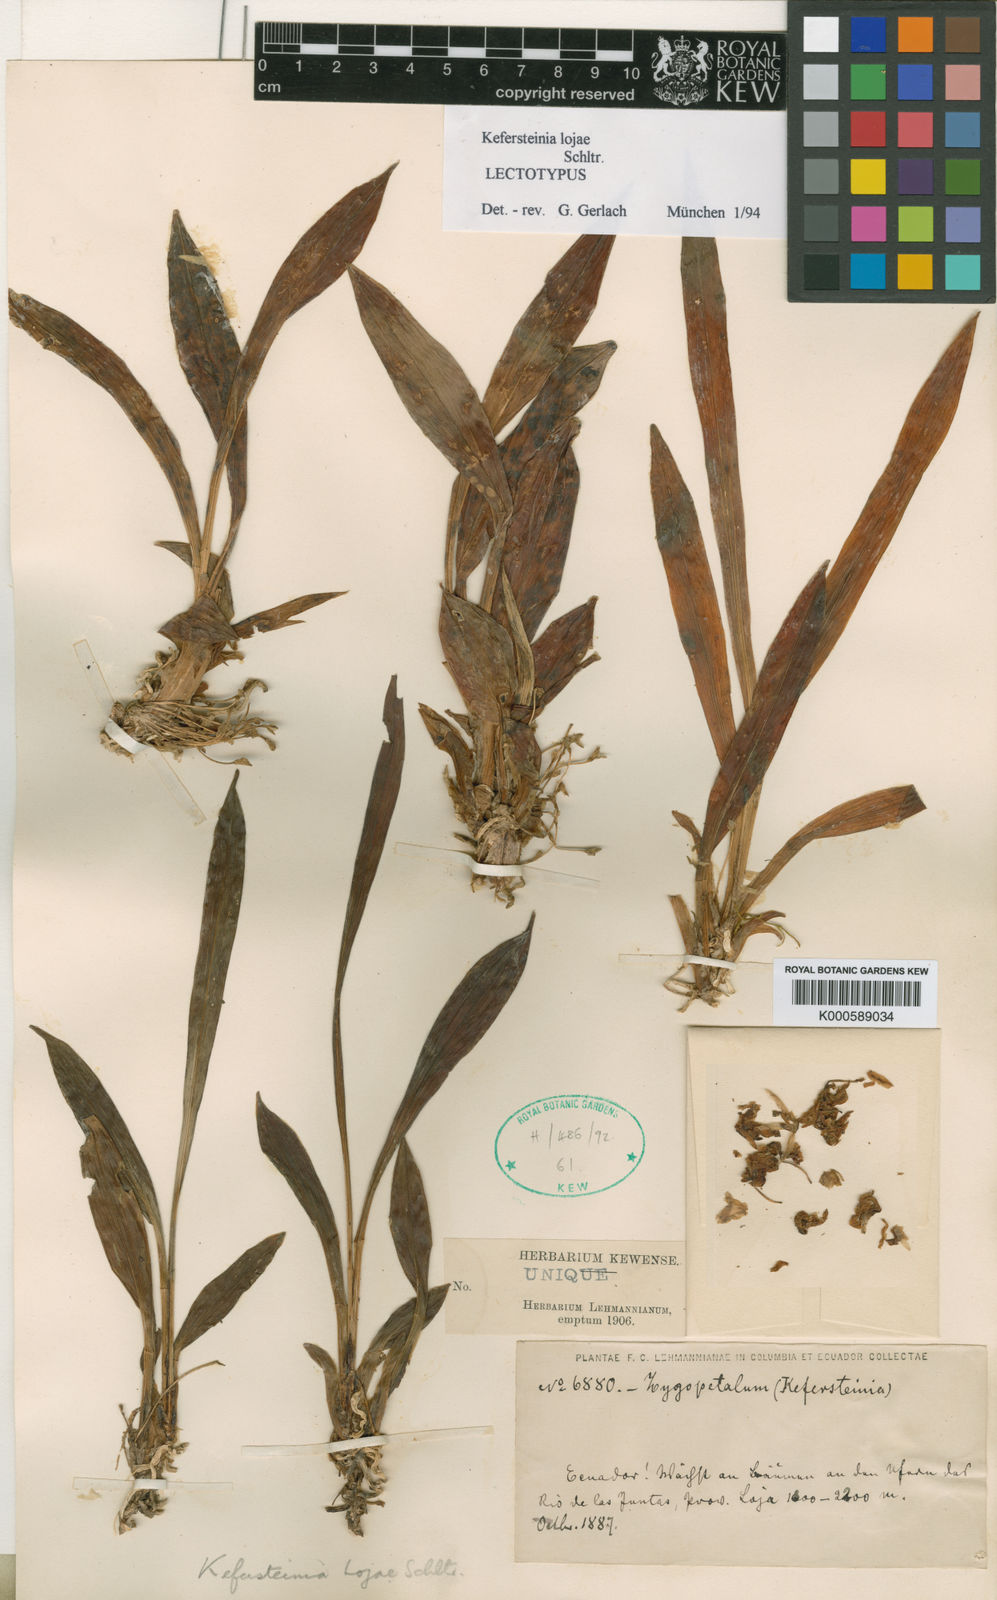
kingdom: Plantae
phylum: Tracheophyta
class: Liliopsida
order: Asparagales
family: Orchidaceae
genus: Kefersteinia
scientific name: Kefersteinia lojae
